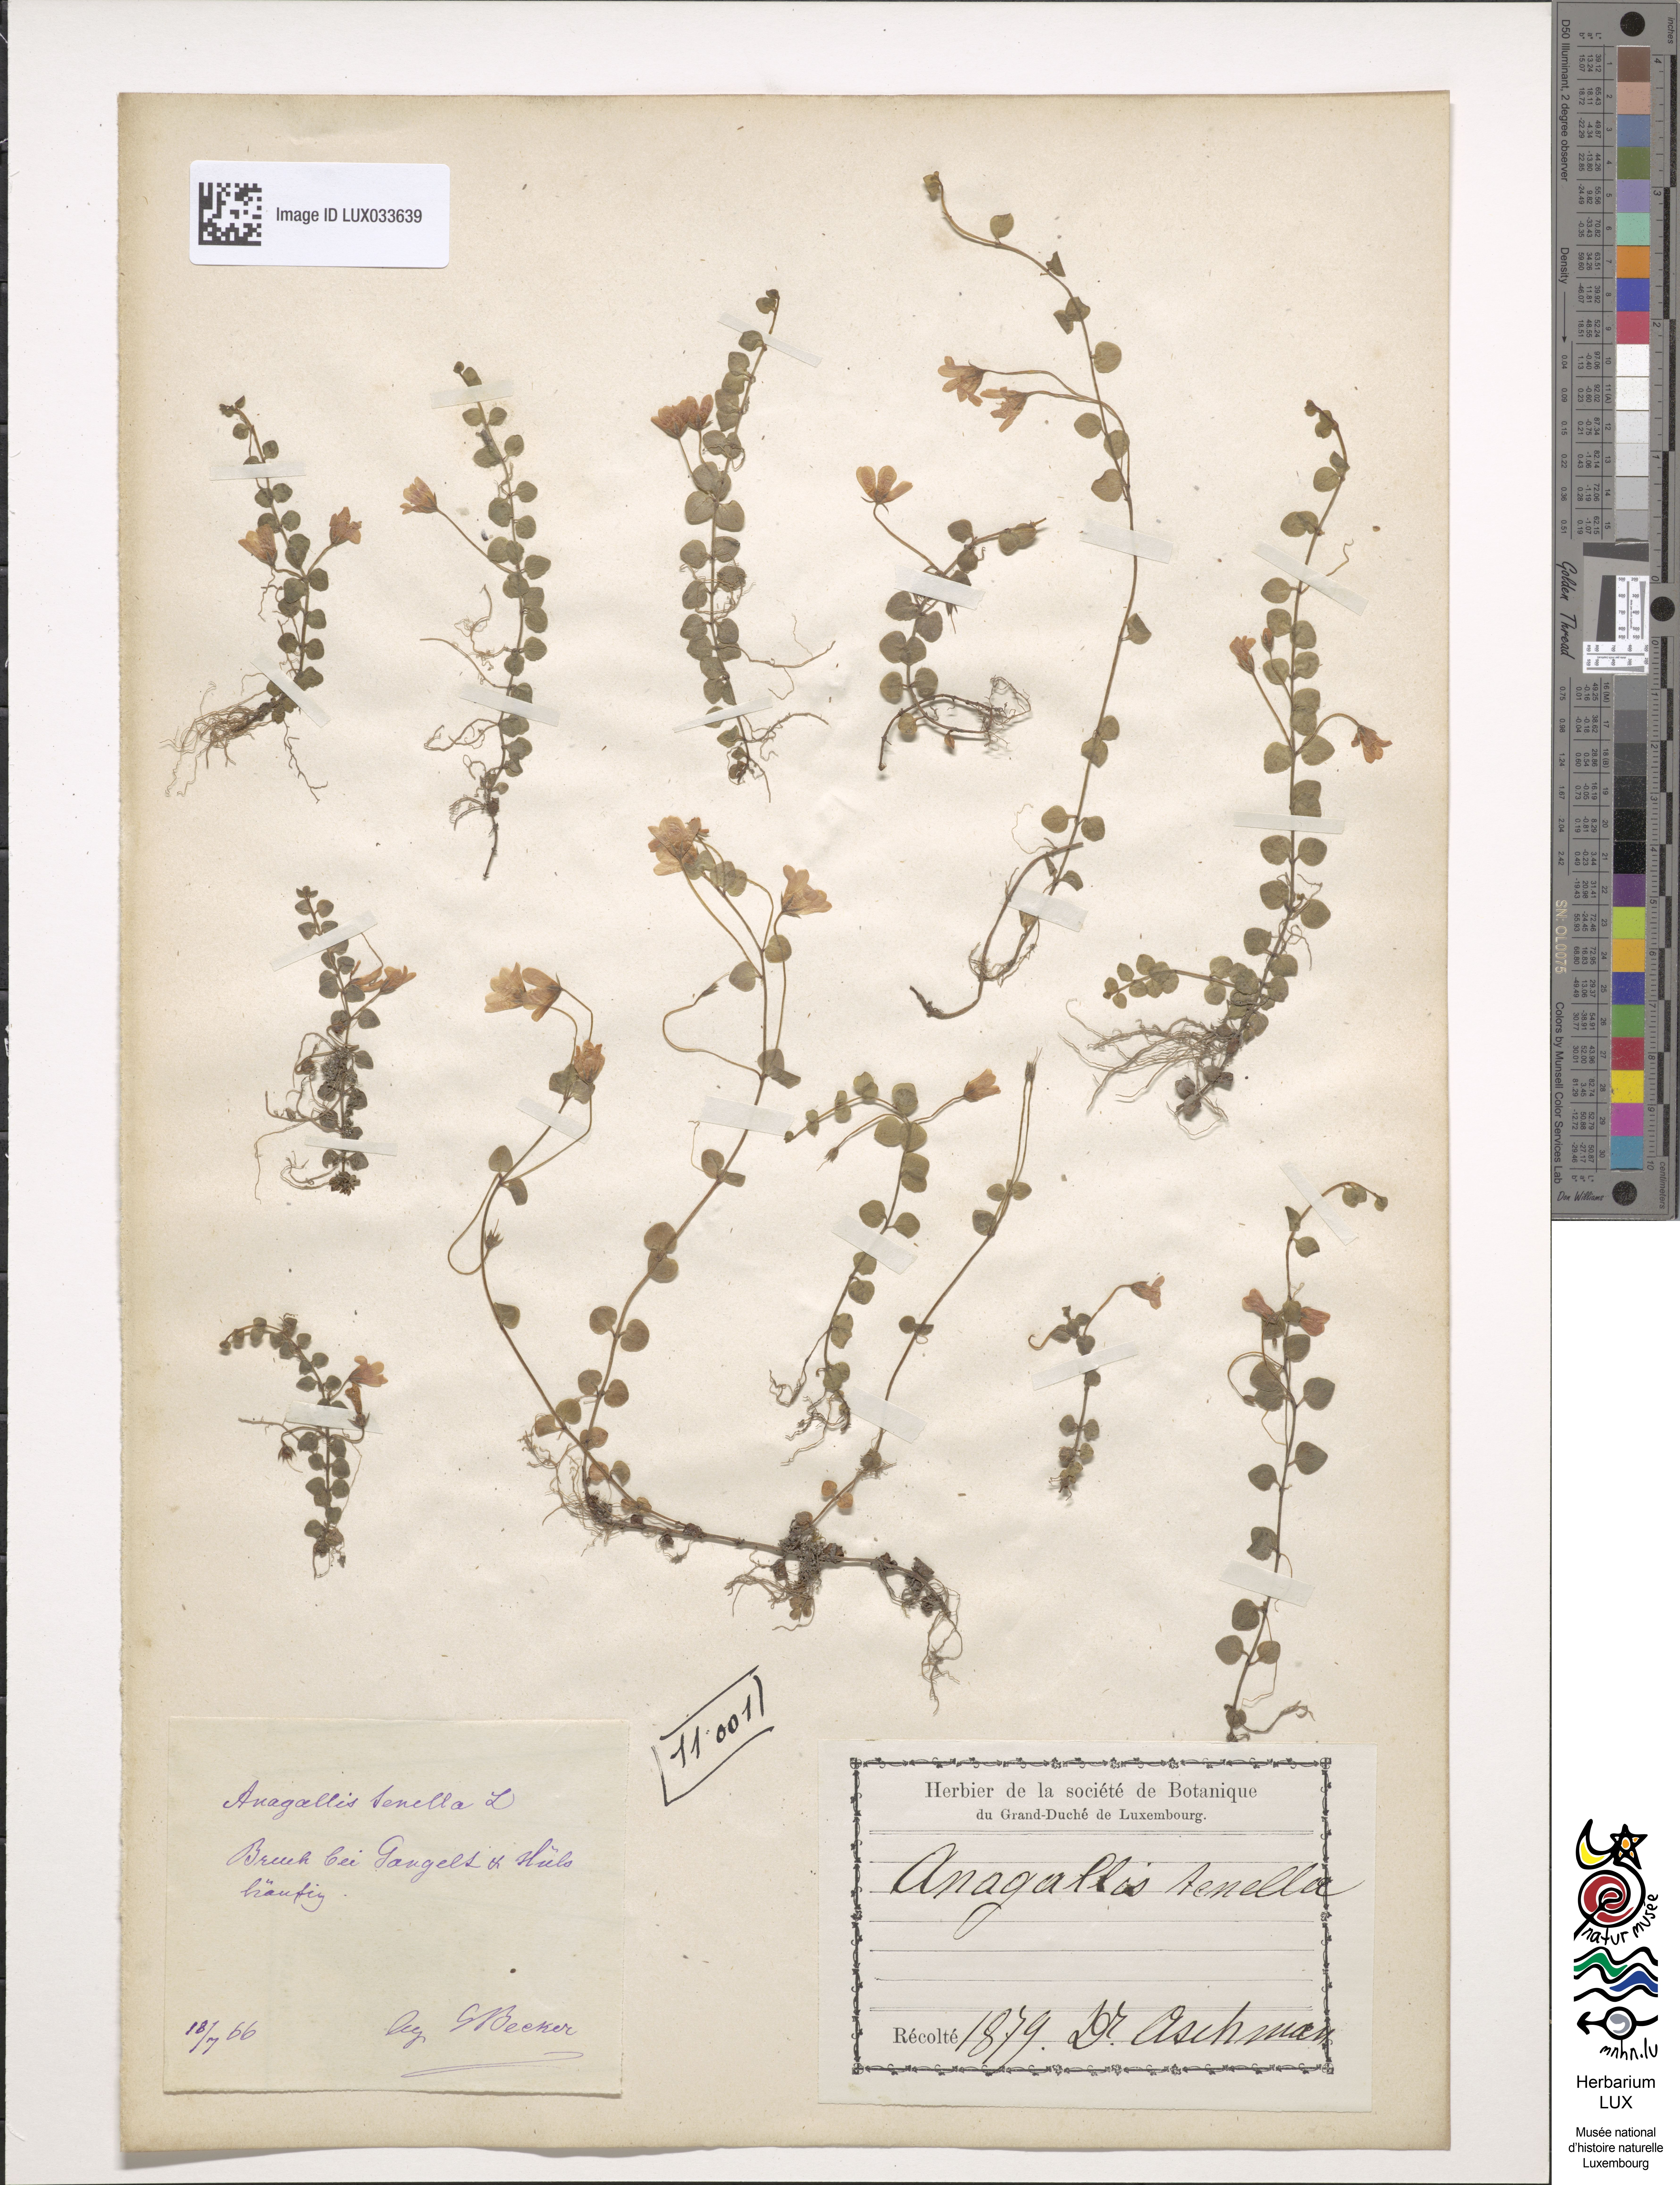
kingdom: Plantae
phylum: Tracheophyta
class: Magnoliopsida
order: Ericales
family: Primulaceae
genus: Lysimachia
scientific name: Lysimachia tenella
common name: European bog pimpernel
